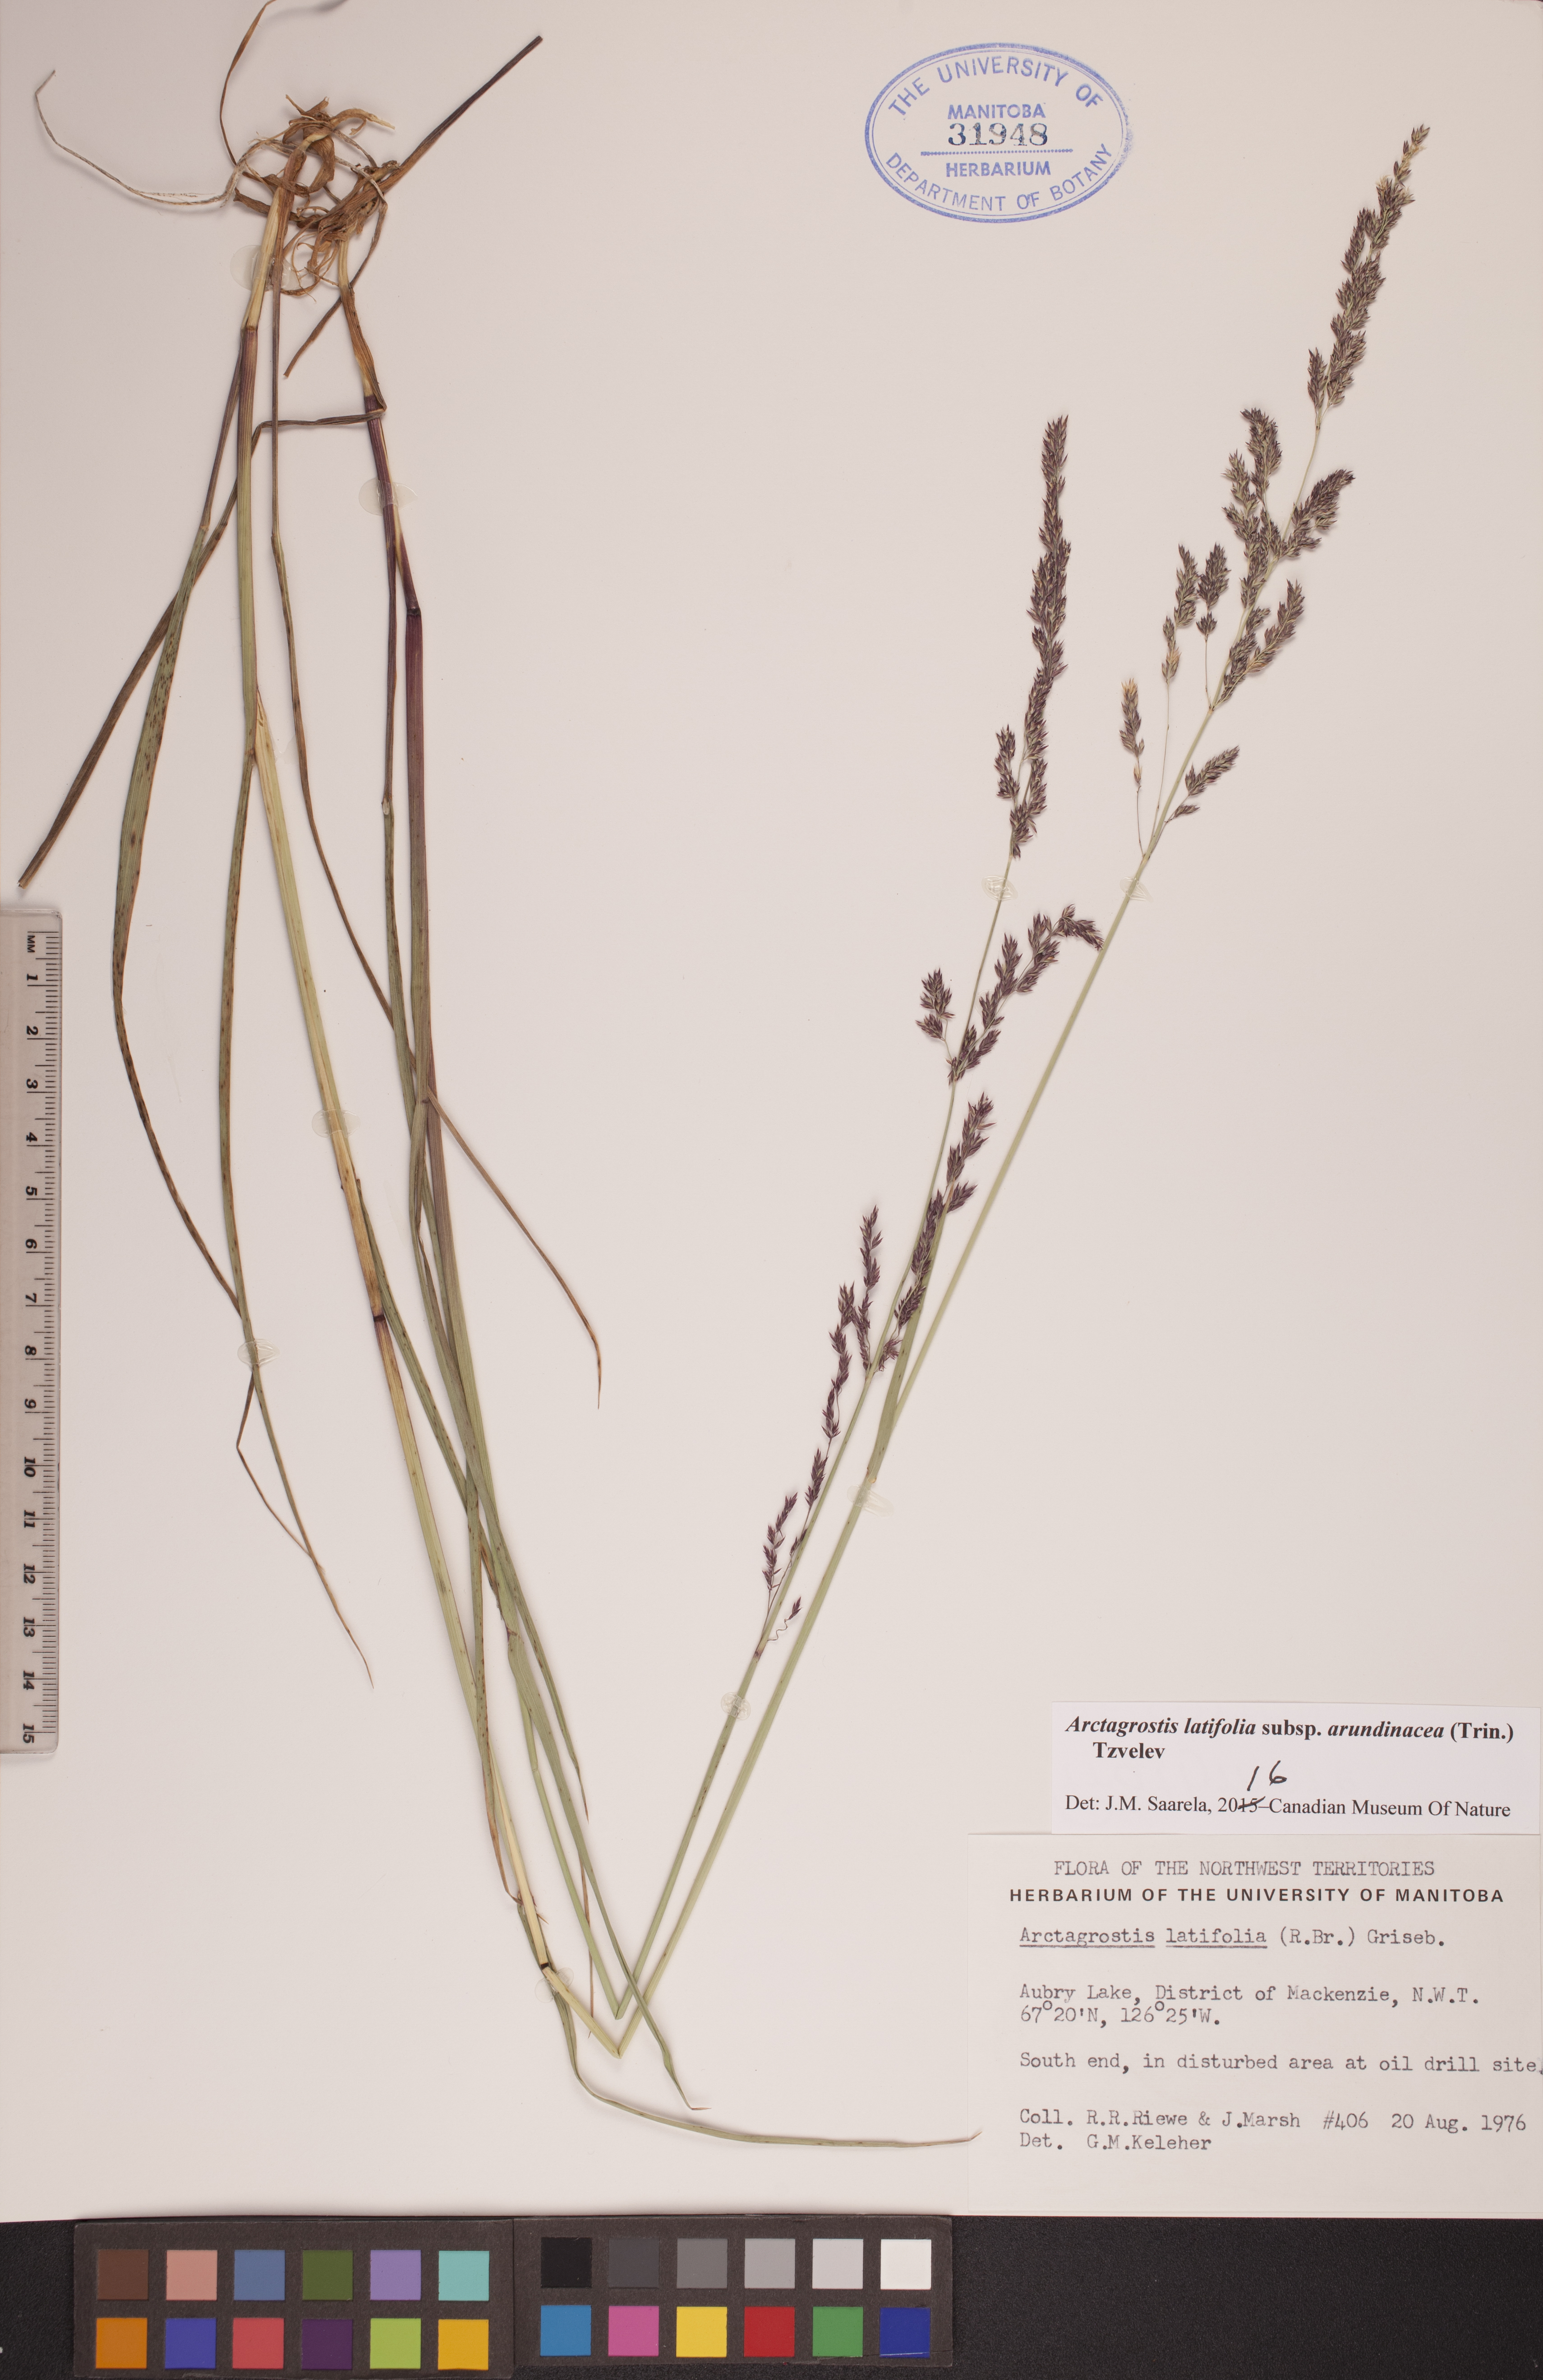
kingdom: Plantae
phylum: Tracheophyta
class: Liliopsida
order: Poales
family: Poaceae
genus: Arctagrostis
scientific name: Arctagrostis arundinacea
